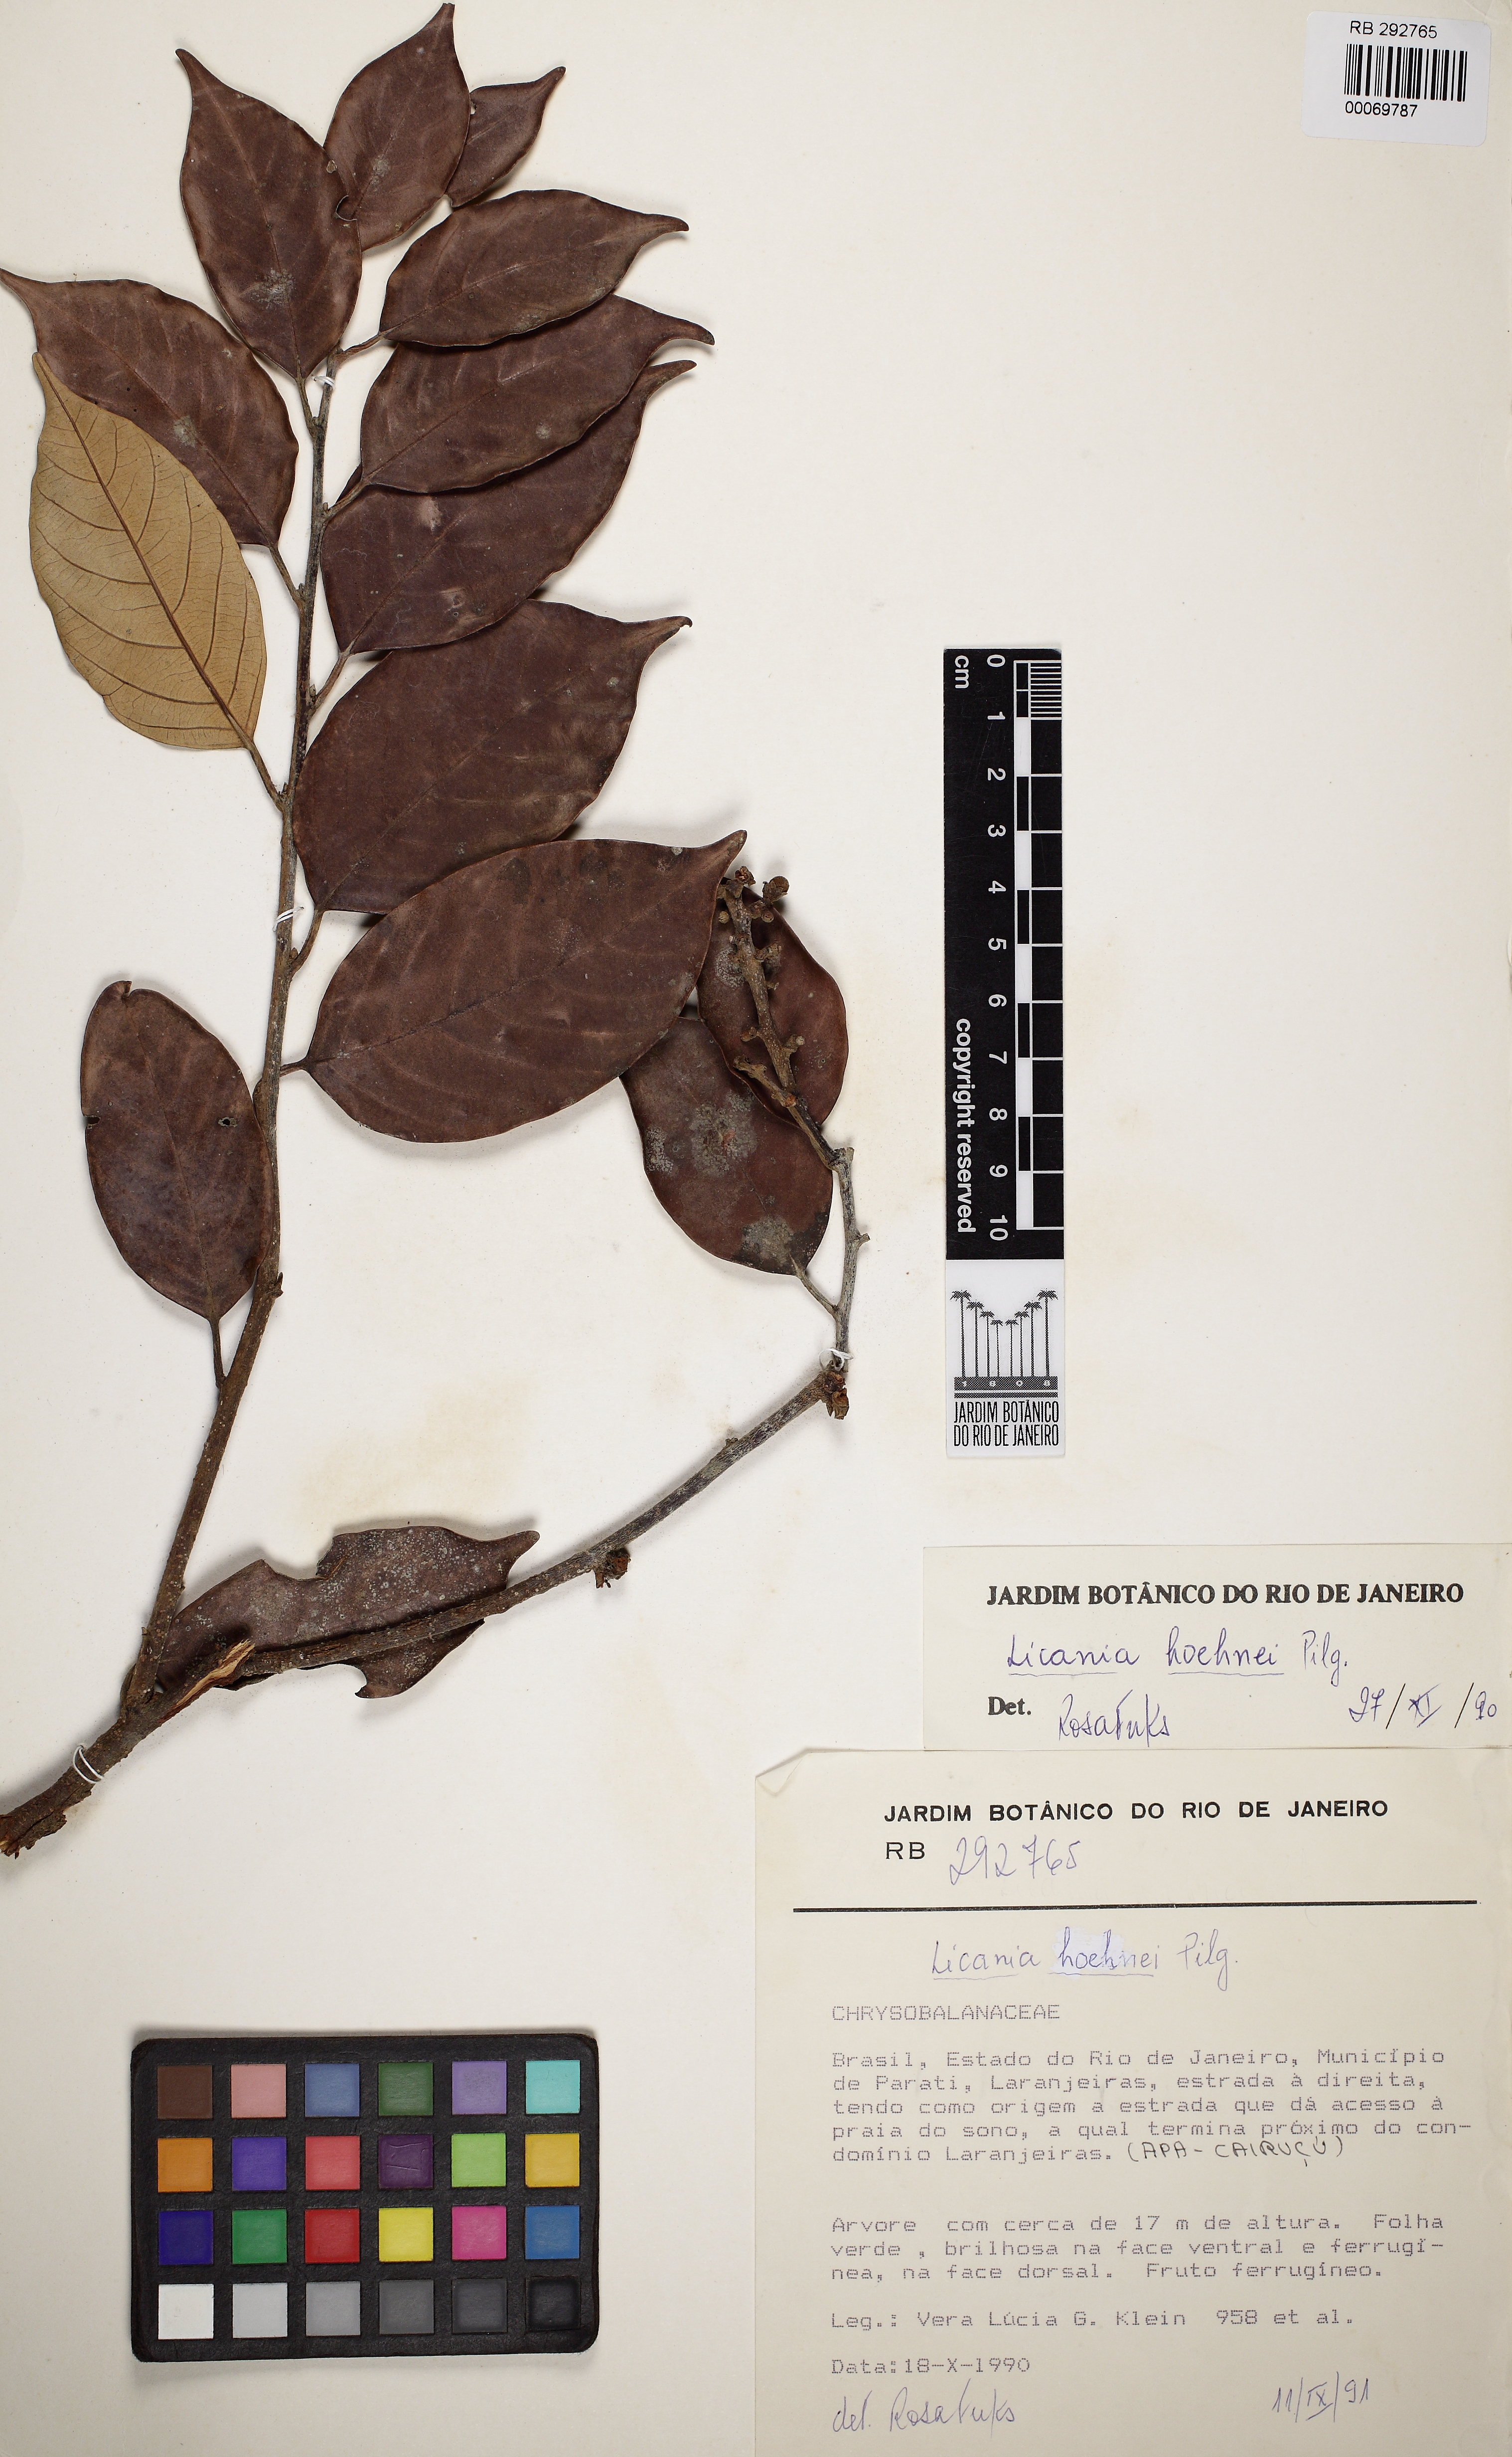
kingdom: Plantae
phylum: Tracheophyta
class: Magnoliopsida
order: Malpighiales
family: Chrysobalanaceae
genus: Licania
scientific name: Licania hoehnei
